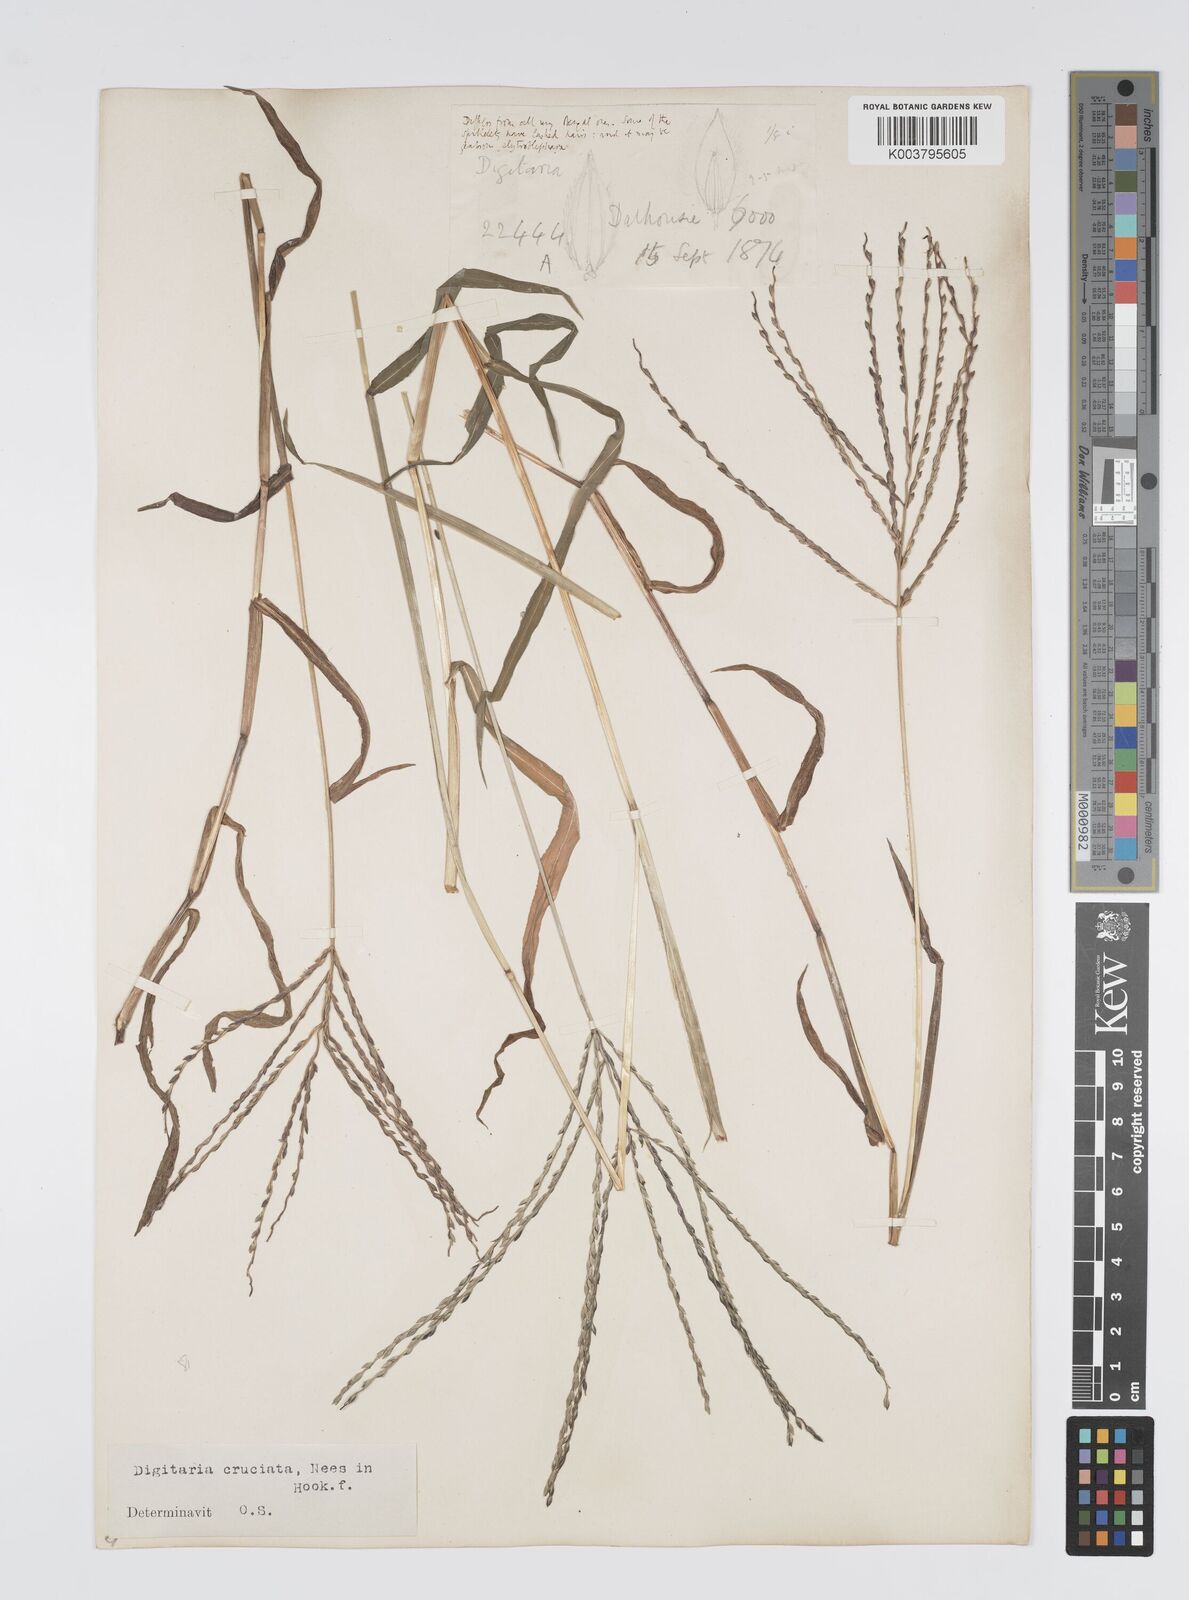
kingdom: Plantae
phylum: Tracheophyta
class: Liliopsida
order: Poales
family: Poaceae
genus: Digitaria
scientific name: Digitaria sanguinalis
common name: Hairy crabgrass
